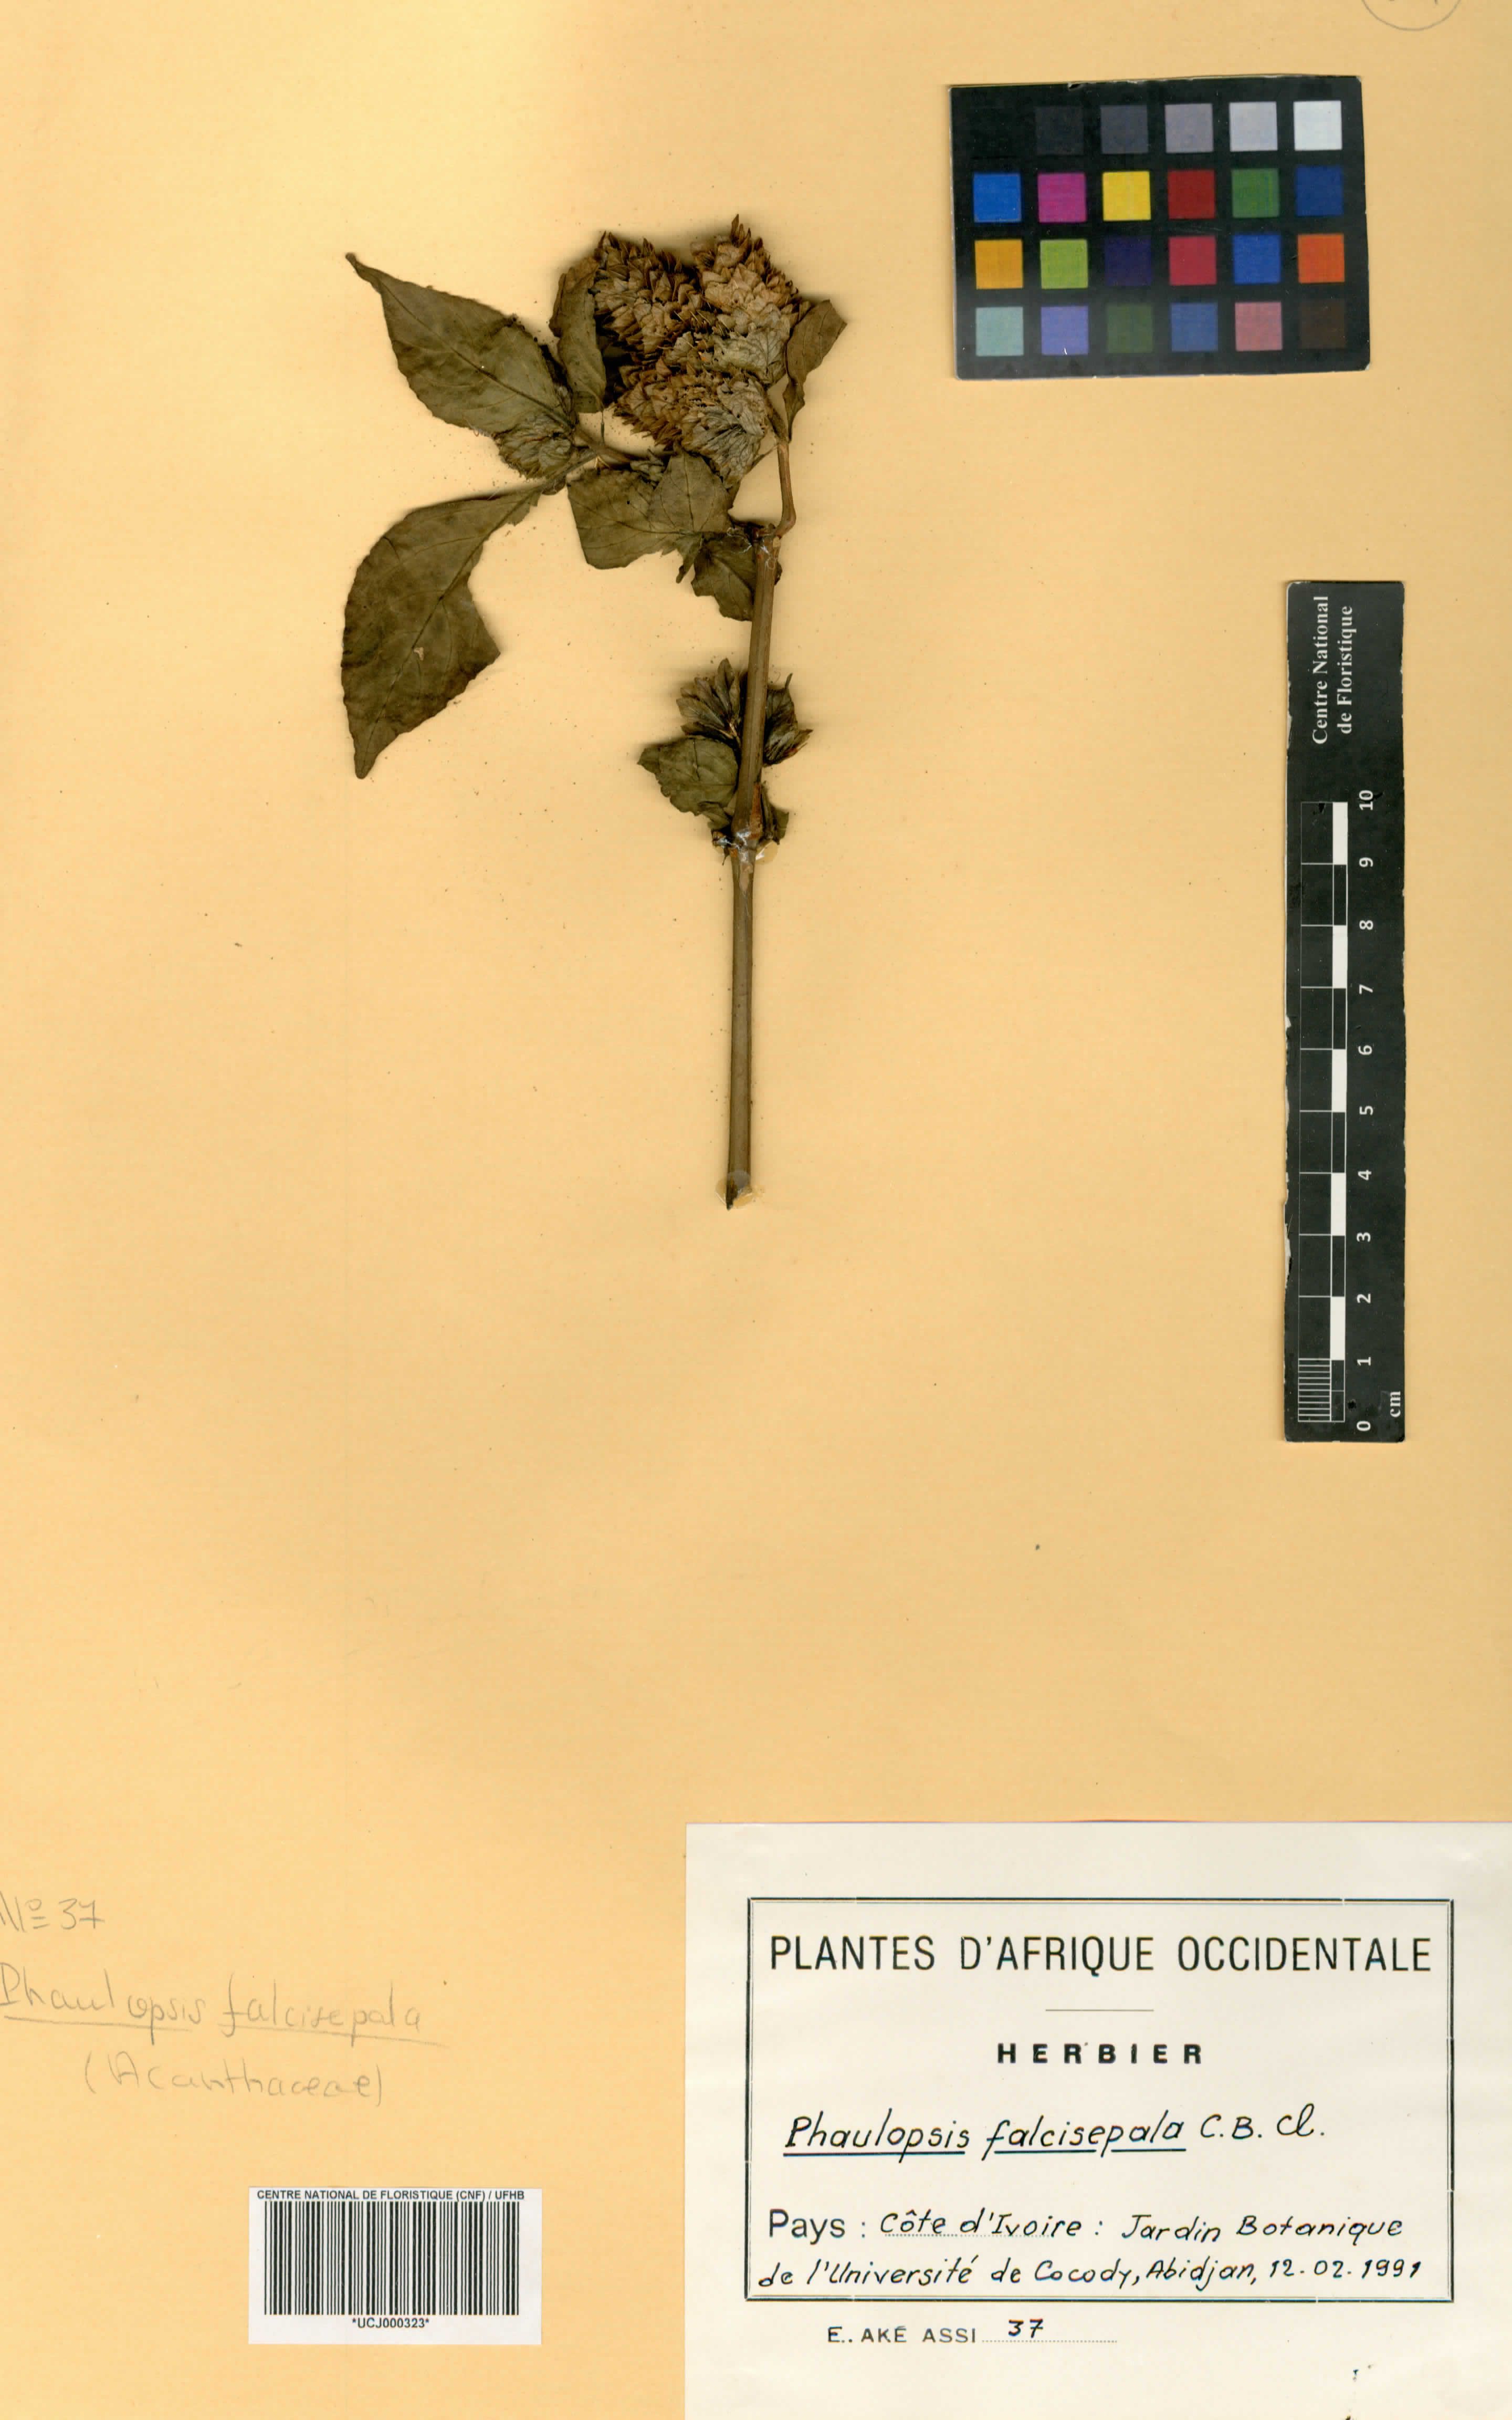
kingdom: Plantae
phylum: Tracheophyta
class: Magnoliopsida
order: Lamiales
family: Acanthaceae
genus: Phaulopsis
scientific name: Phaulopsis ciliata
